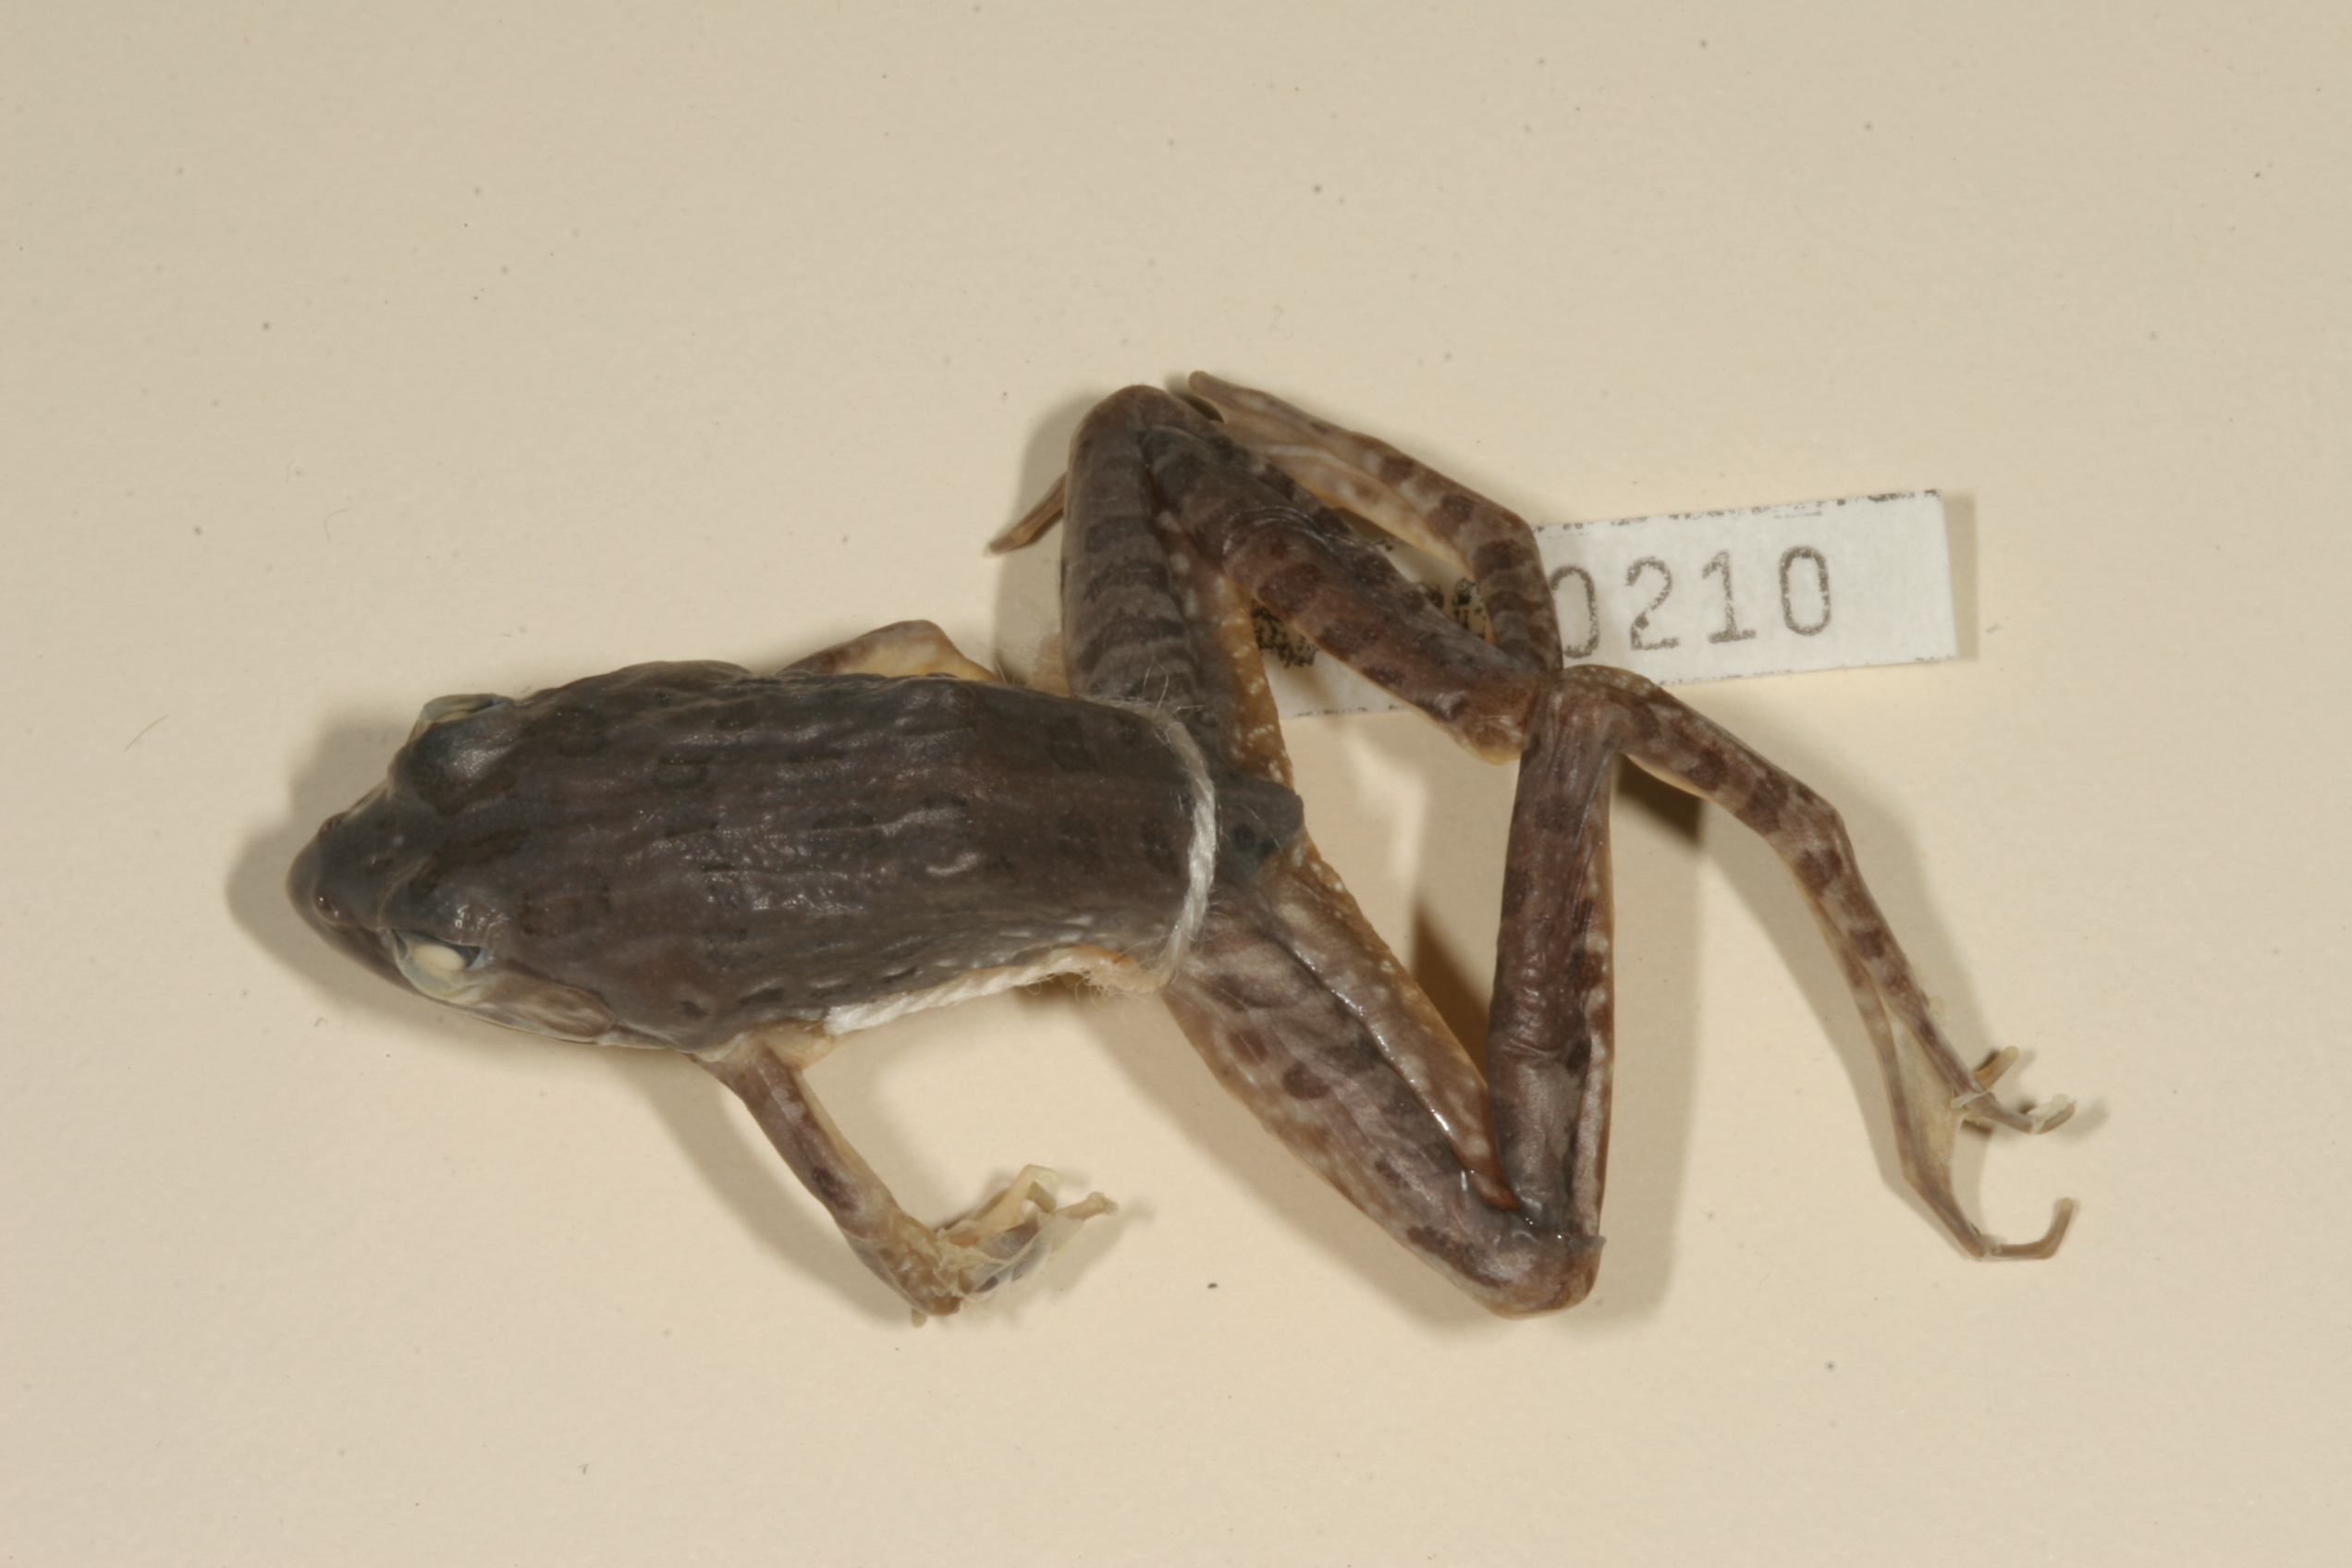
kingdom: Animalia
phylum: Chordata
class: Amphibia
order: Anura
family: Pyxicephalidae
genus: Amietia
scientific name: Amietia angolensis
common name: Dusky-throated frog
